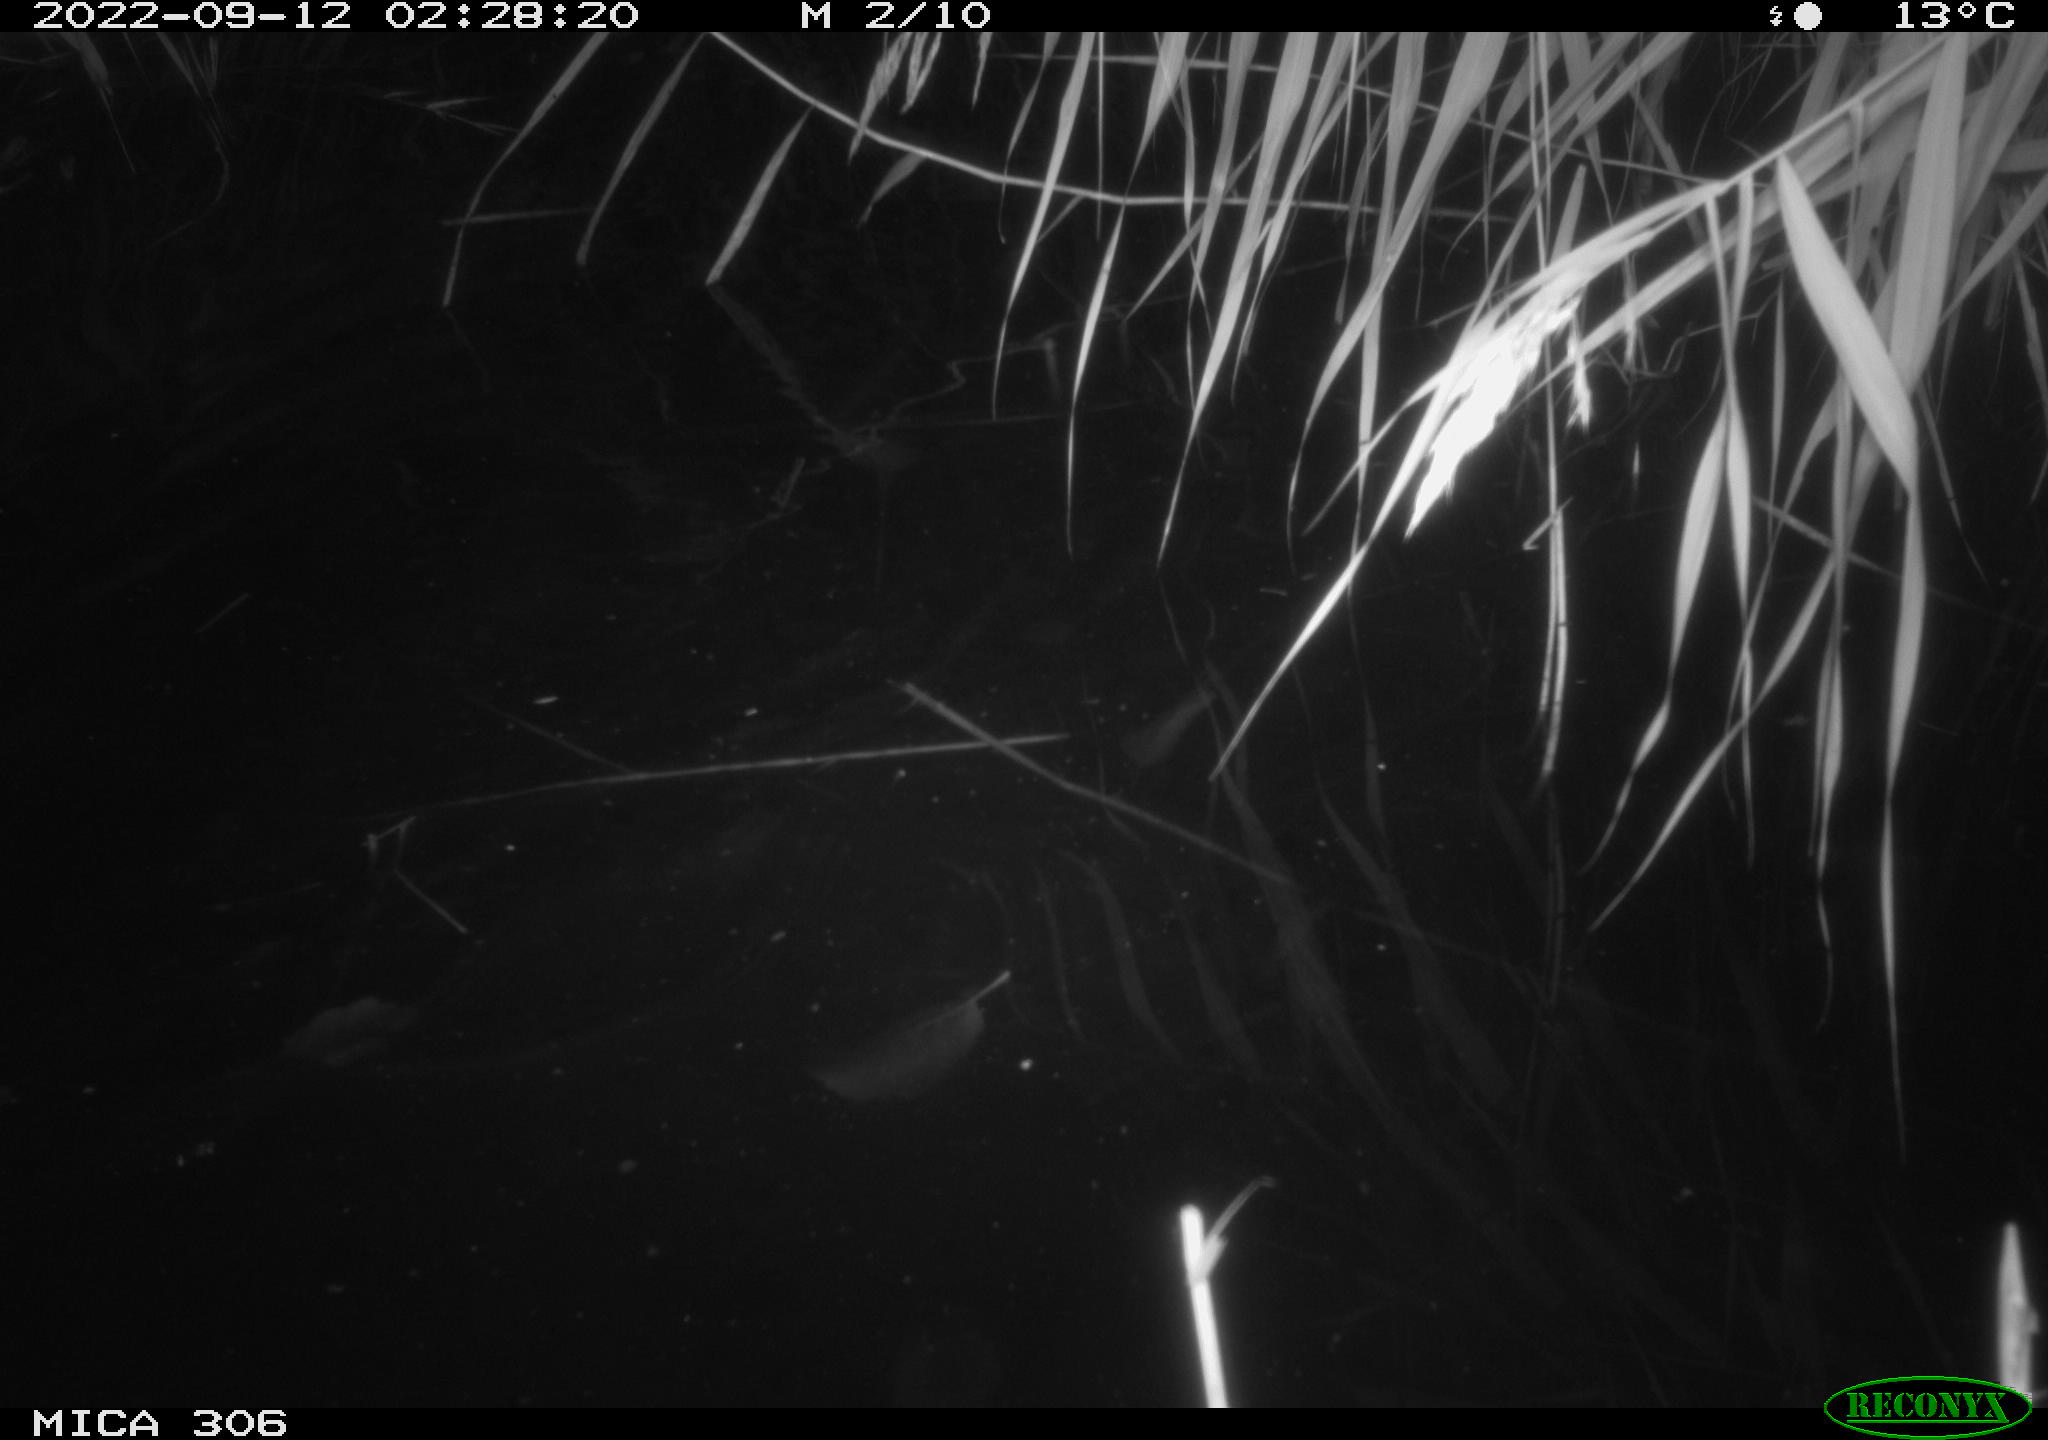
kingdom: Animalia
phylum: Chordata
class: Mammalia
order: Rodentia
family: Muridae
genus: Rattus
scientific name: Rattus norvegicus
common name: Brown rat
